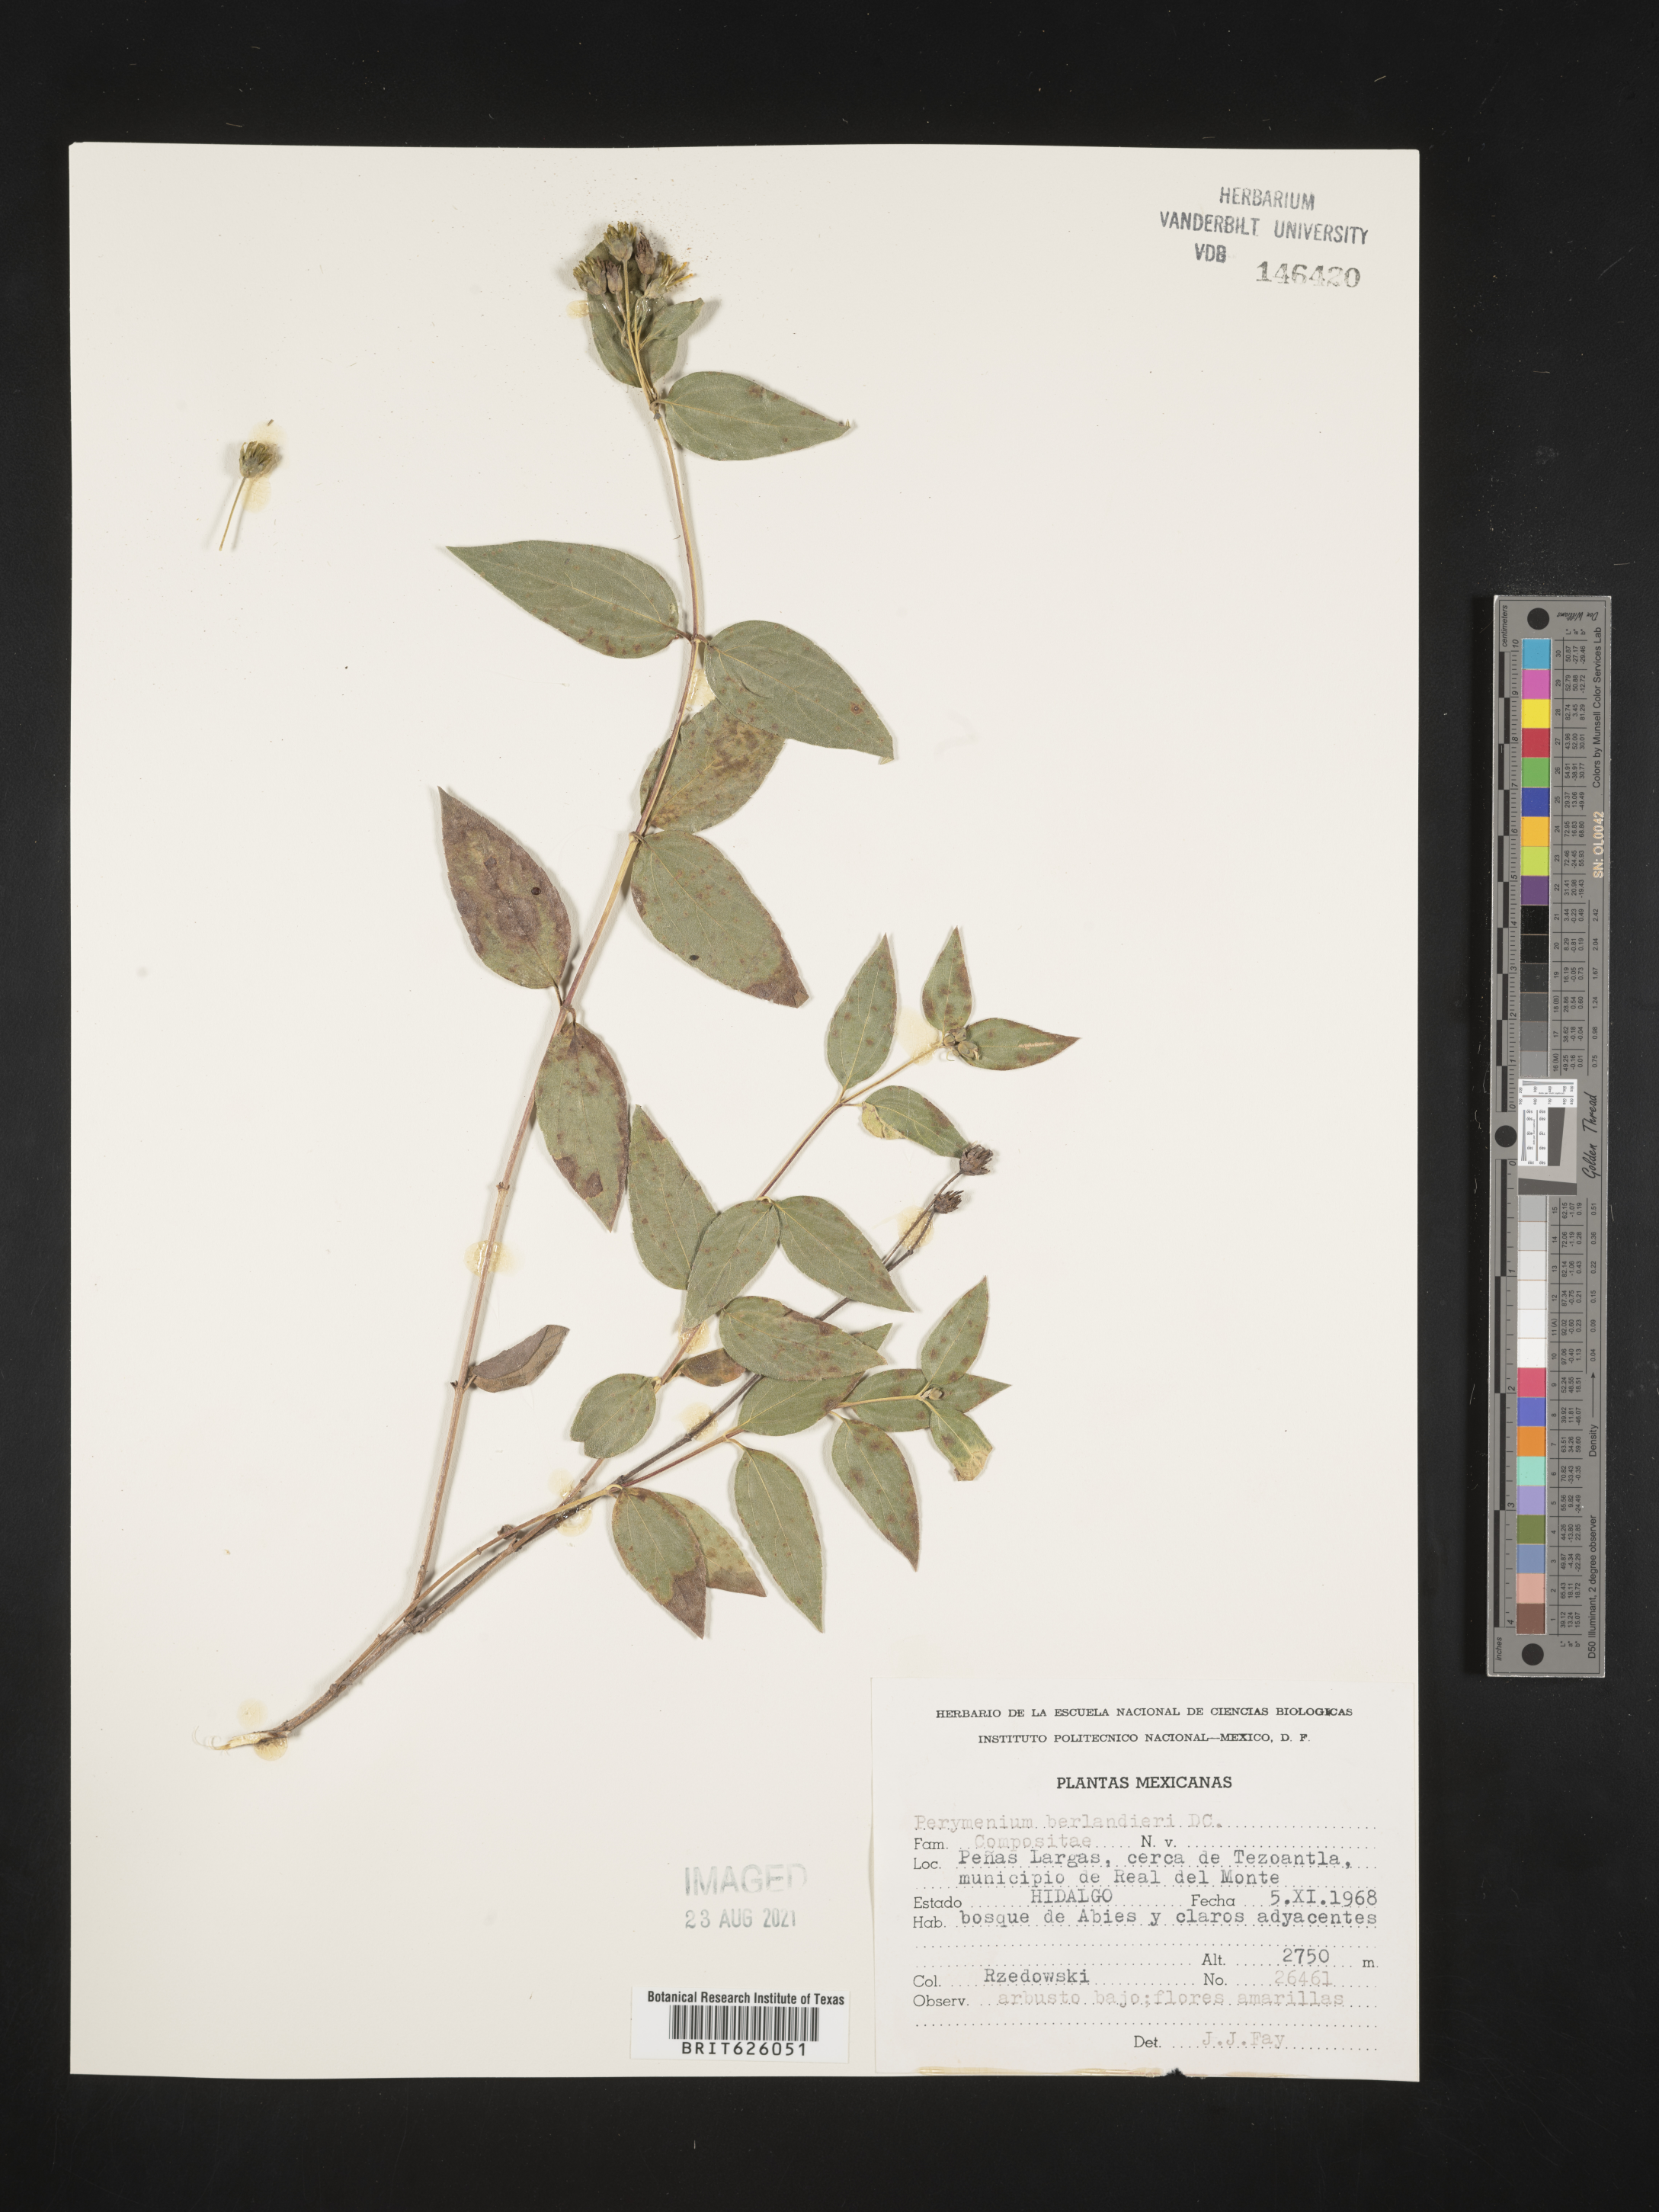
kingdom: Plantae
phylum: Tracheophyta
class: Magnoliopsida
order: Asterales
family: Asteraceae
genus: Perymenium
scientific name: Perymenium
